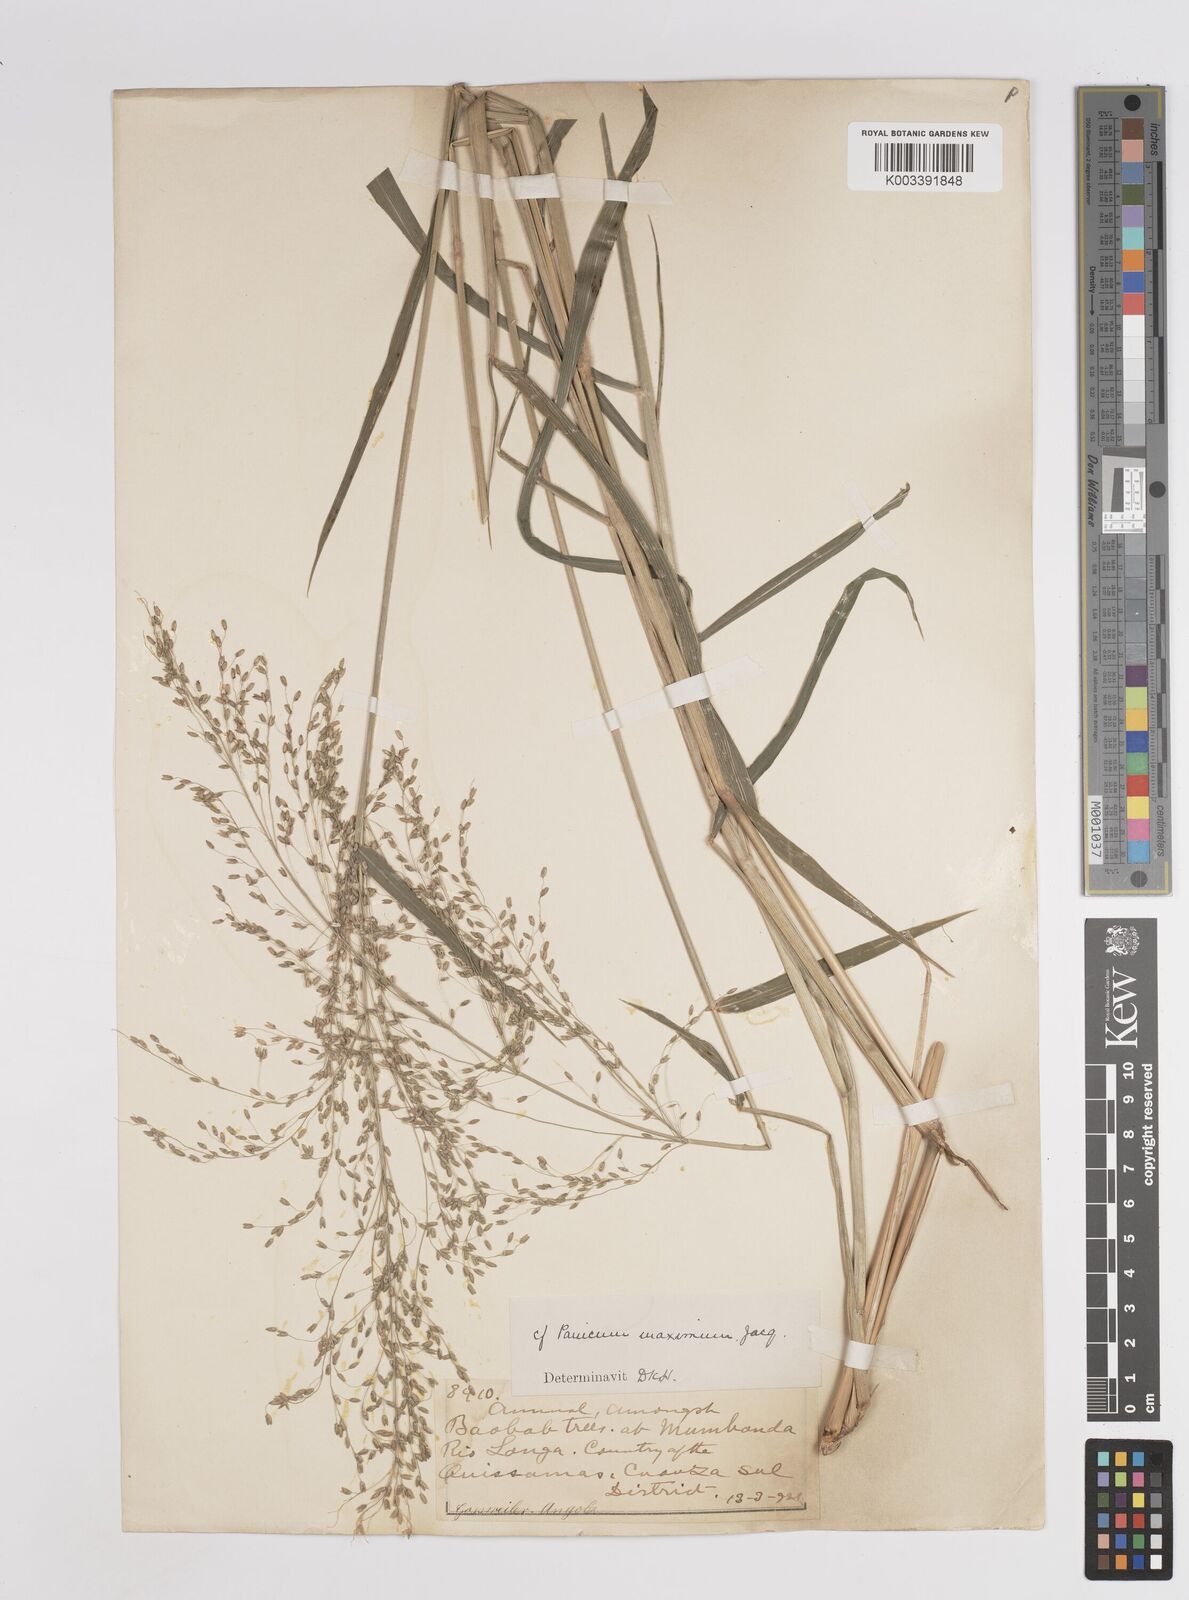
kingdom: Plantae
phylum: Tracheophyta
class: Liliopsida
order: Poales
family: Poaceae
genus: Megathyrsus
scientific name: Megathyrsus maximus
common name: Guineagrass
